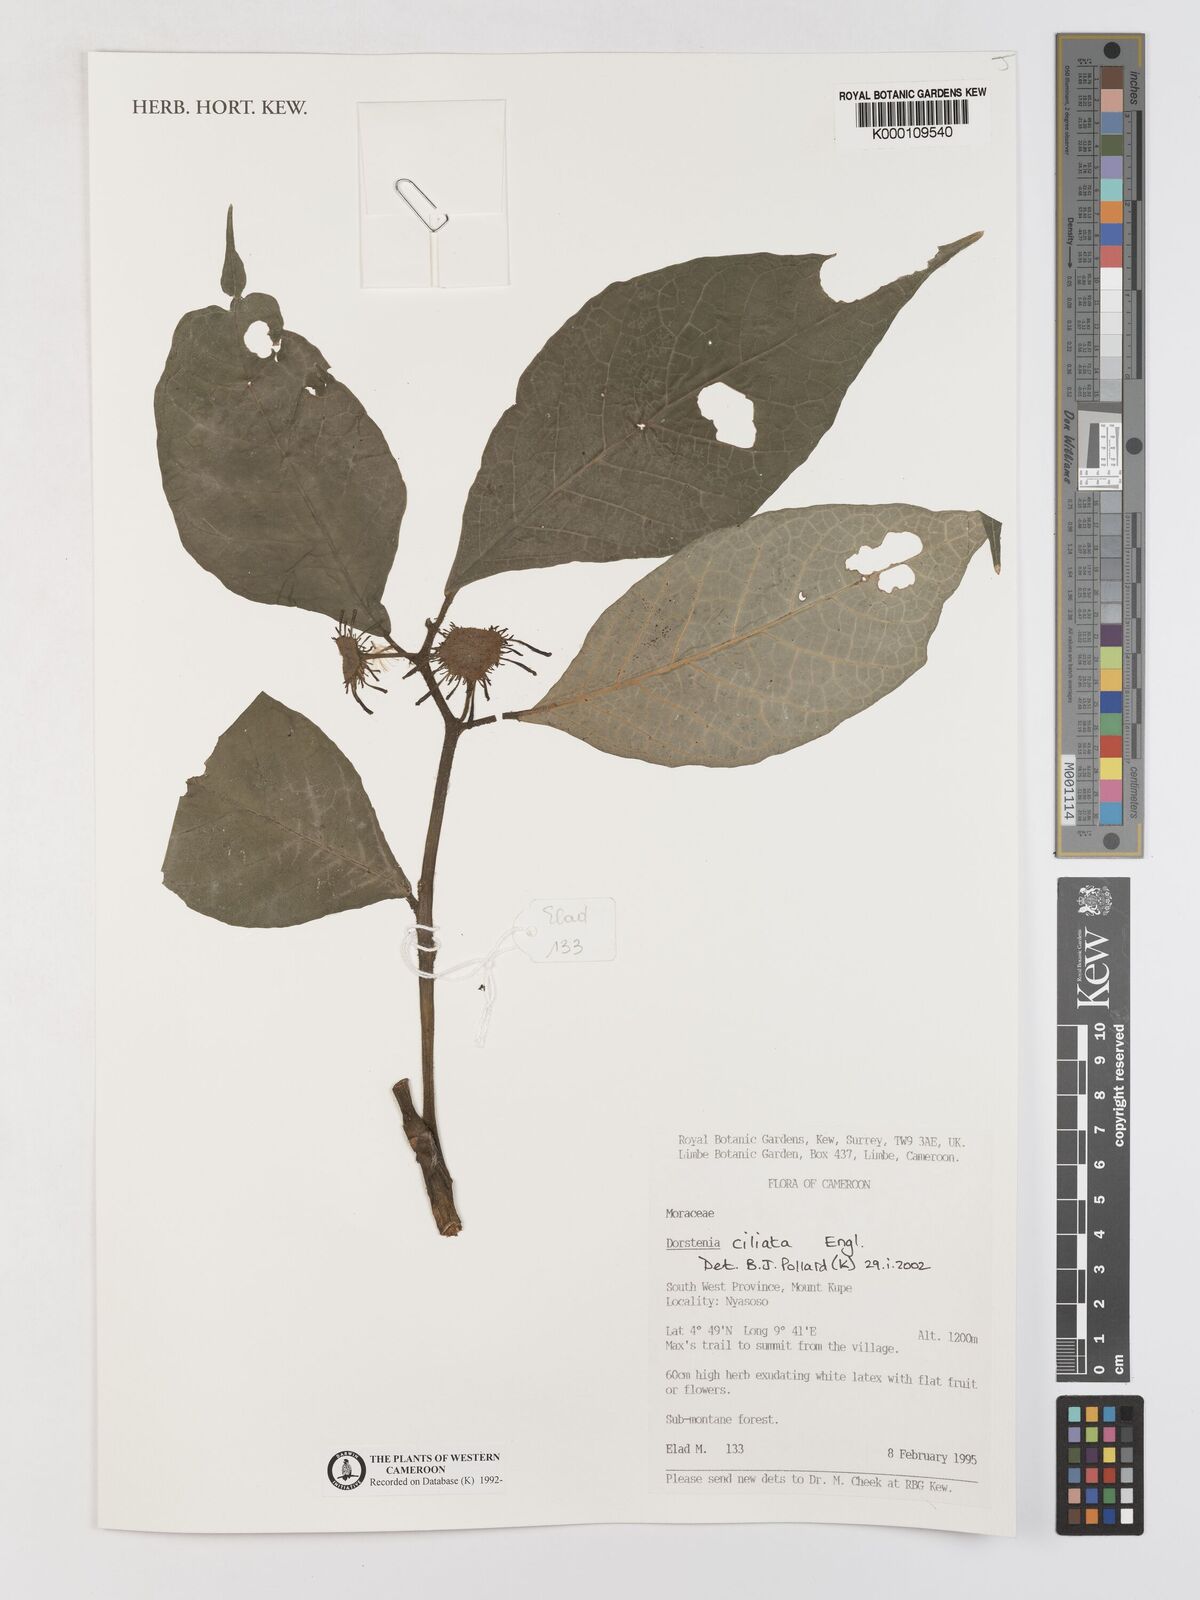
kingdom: Plantae
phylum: Tracheophyta
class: Magnoliopsida
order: Rosales
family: Moraceae
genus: Dorstenia
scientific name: Dorstenia ciliata
